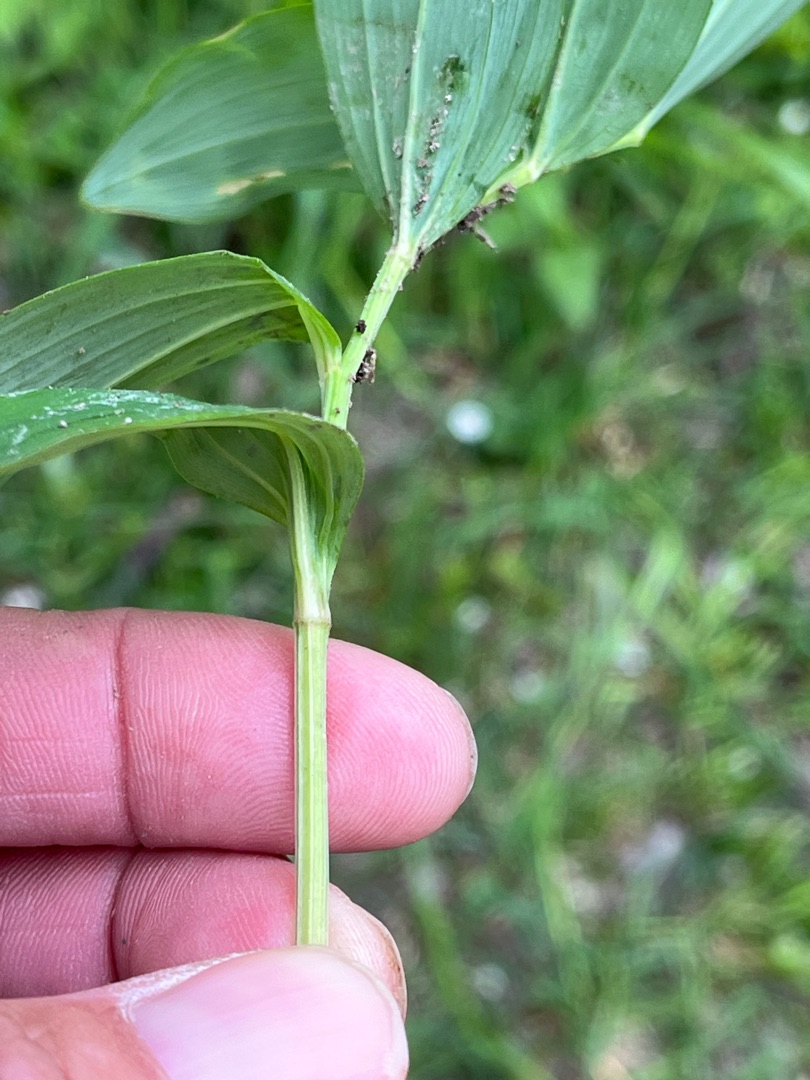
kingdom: Plantae
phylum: Tracheophyta
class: Liliopsida
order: Asparagales
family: Asparagaceae
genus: Polygonatum
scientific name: Polygonatum odoratum
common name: Kantet konval
